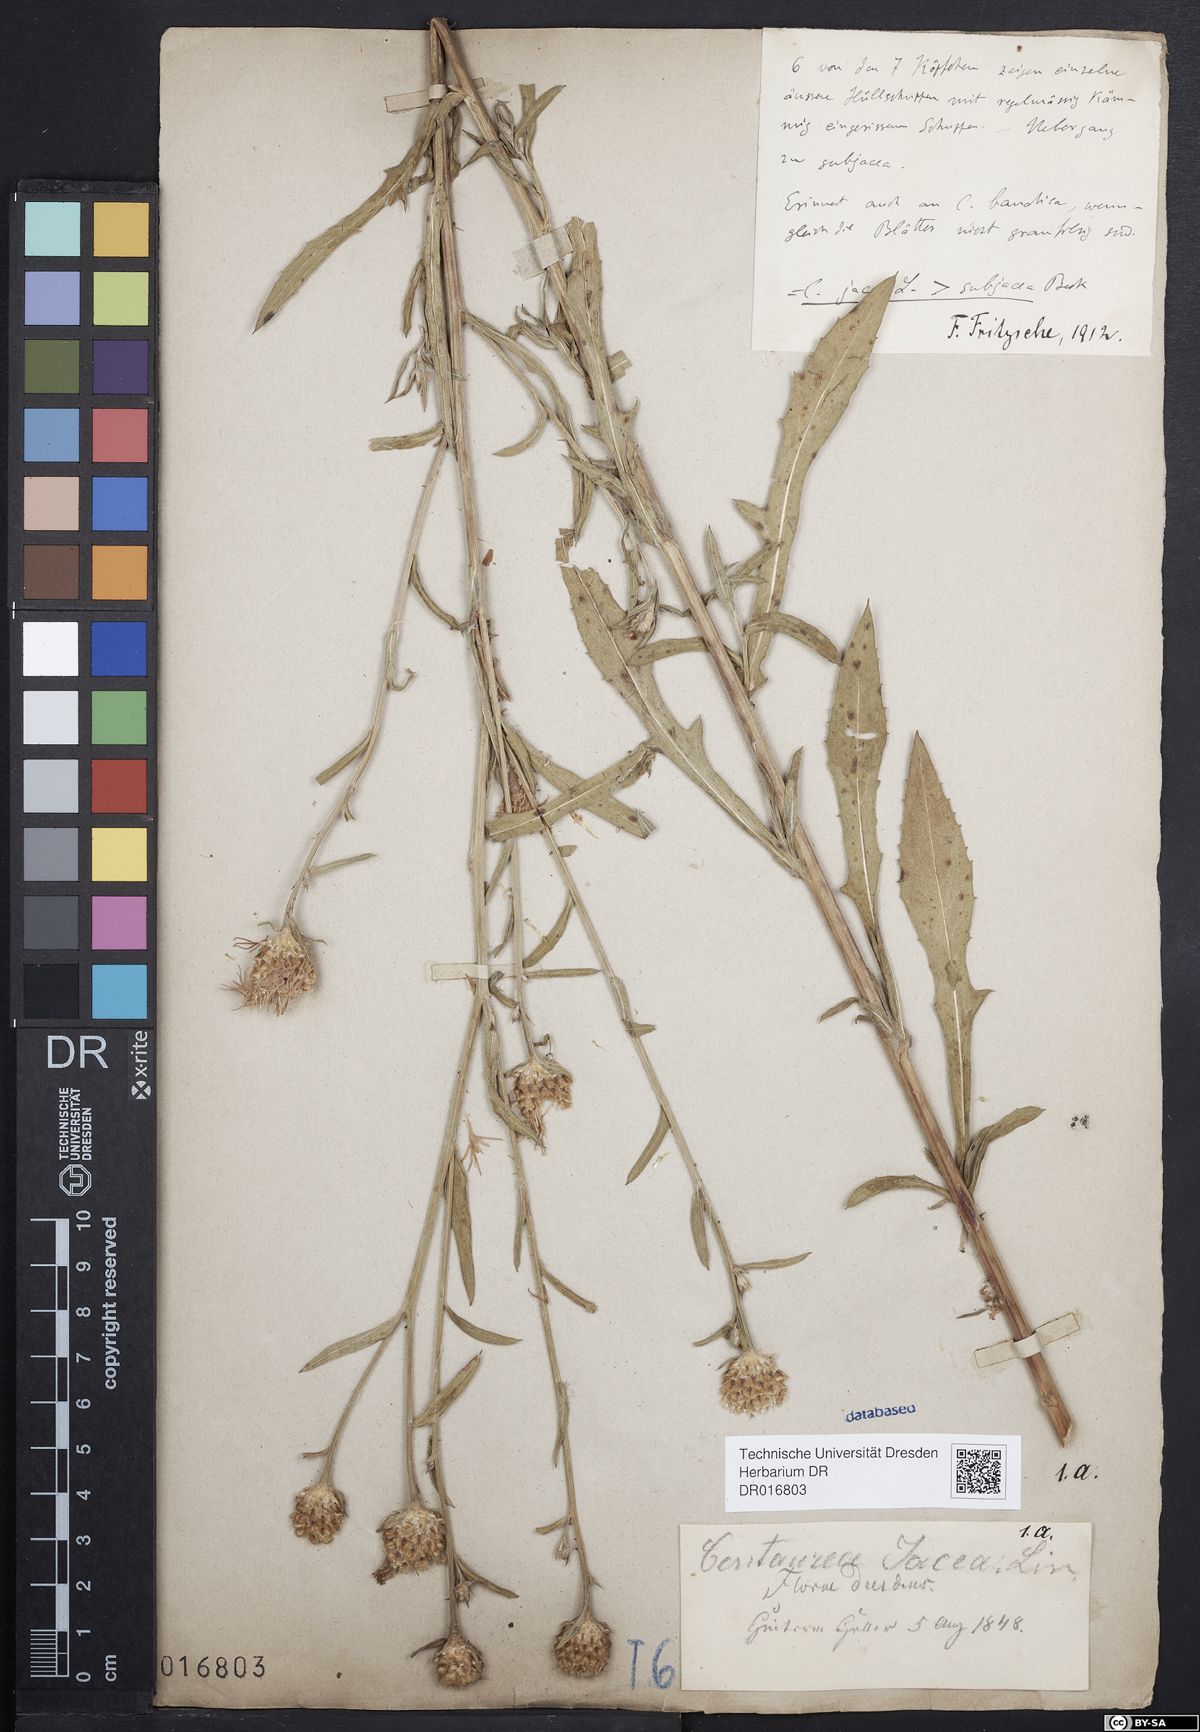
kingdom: Plantae
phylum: Tracheophyta
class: Magnoliopsida
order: Asterales
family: Asteraceae
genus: Centaurea
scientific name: Centaurea preissmannii
